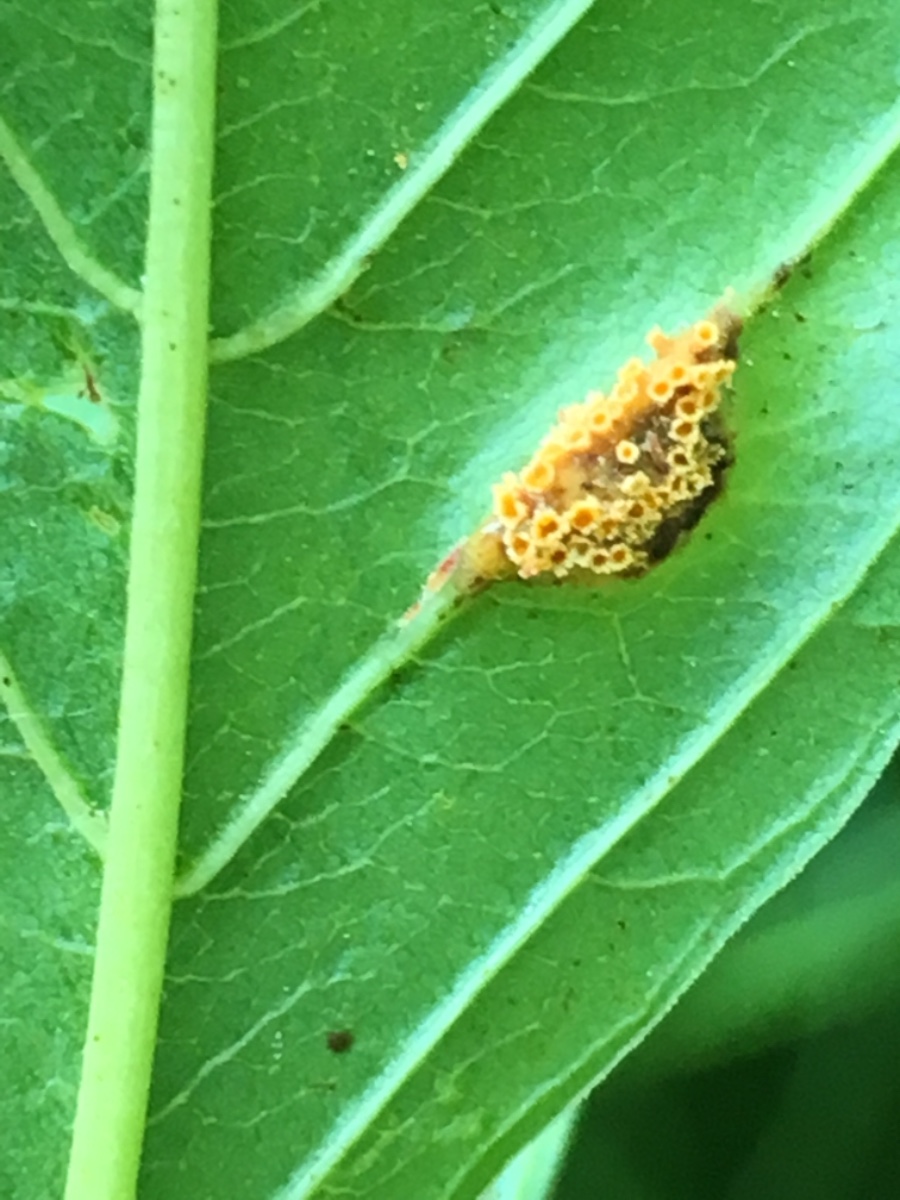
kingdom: Fungi
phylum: Basidiomycota
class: Pucciniomycetes
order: Pucciniales
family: Pucciniaceae
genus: Puccinia
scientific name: Puccinia coronata
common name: Crown rust
